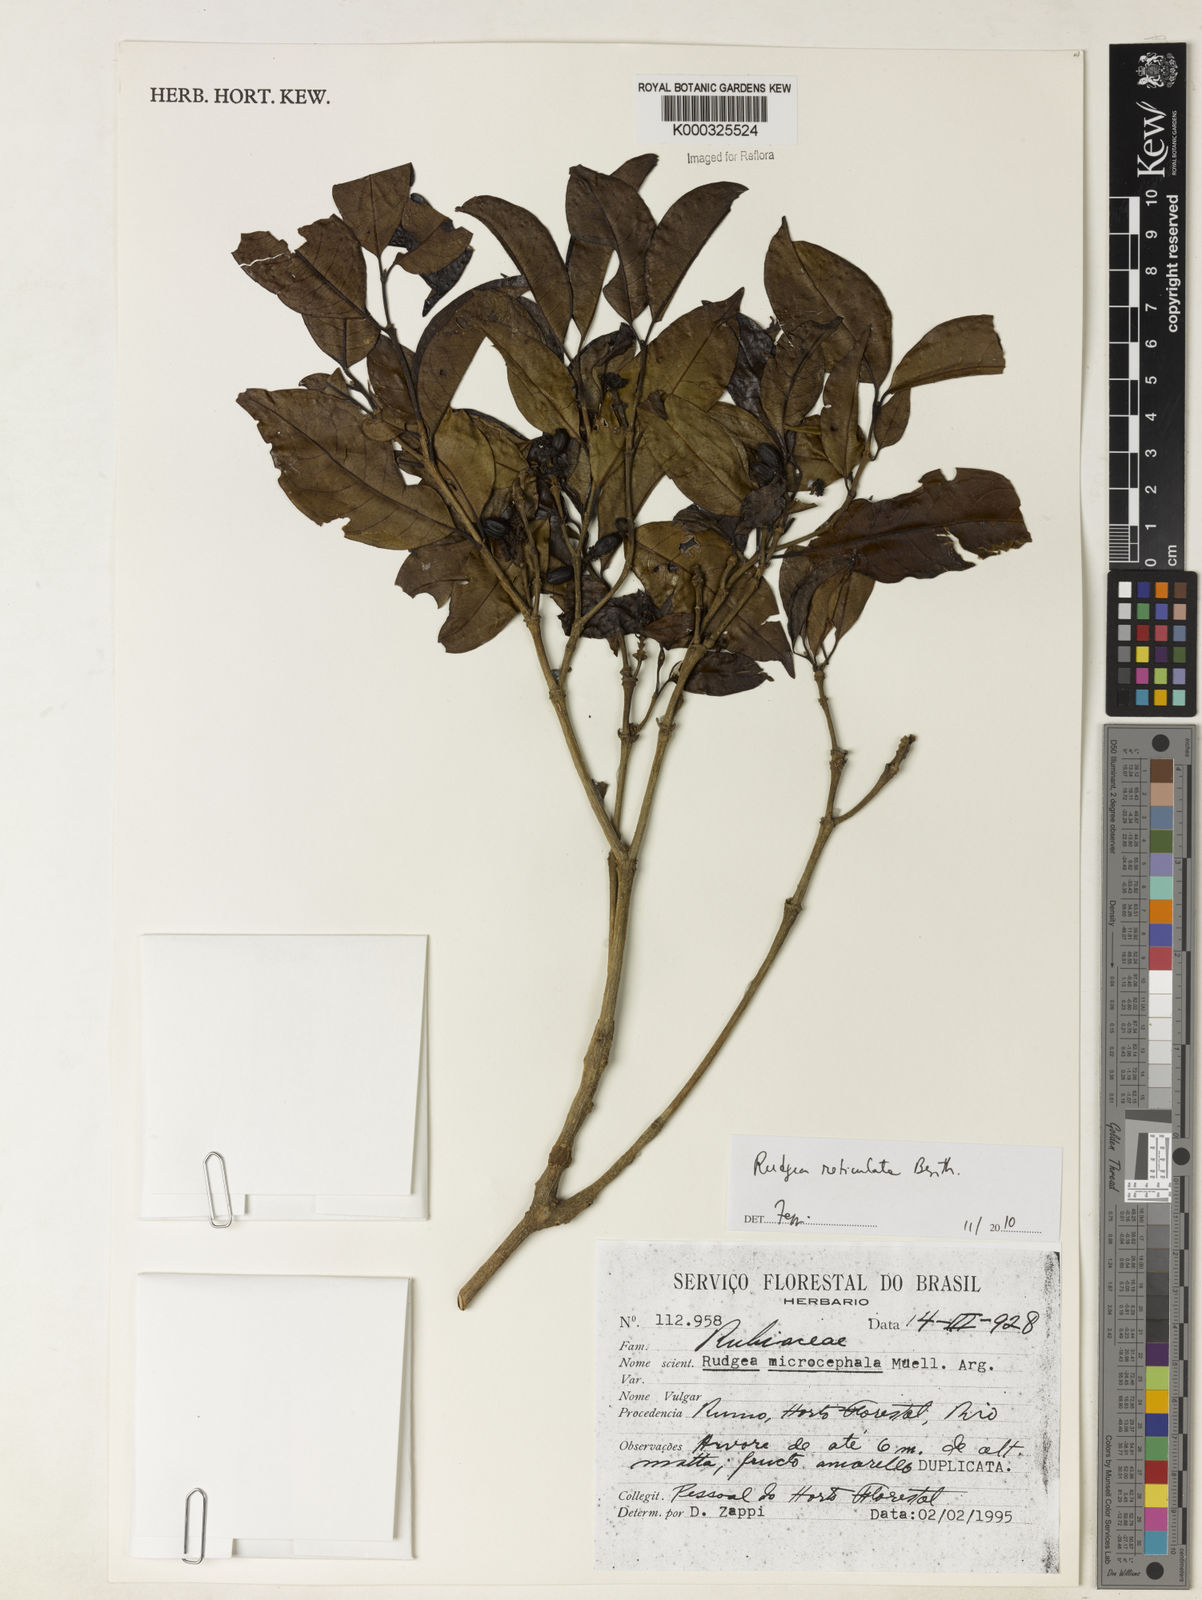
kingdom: Plantae
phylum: Tracheophyta
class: Magnoliopsida
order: Gentianales
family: Rubiaceae
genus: Rudgea
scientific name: Rudgea reticulata
